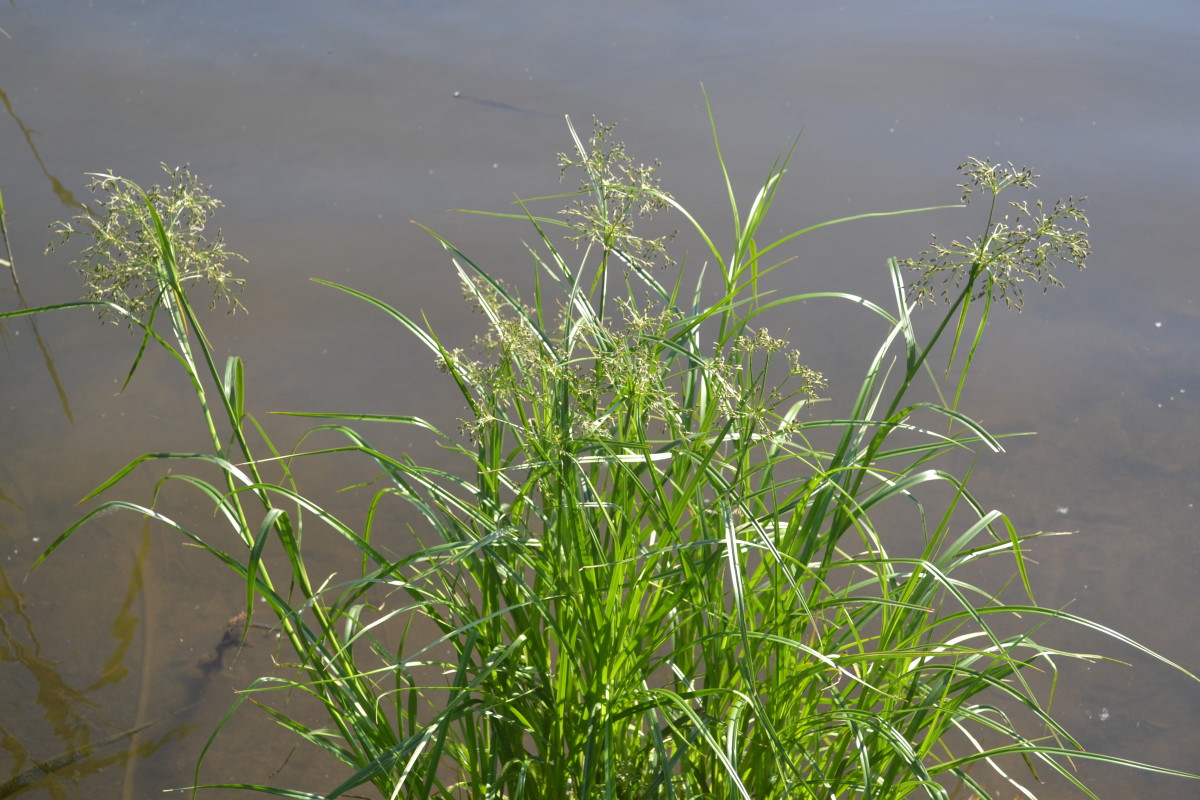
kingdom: Plantae
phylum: Tracheophyta
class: Liliopsida
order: Poales
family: Cyperaceae
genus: Scirpus
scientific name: Scirpus sylvaticus
